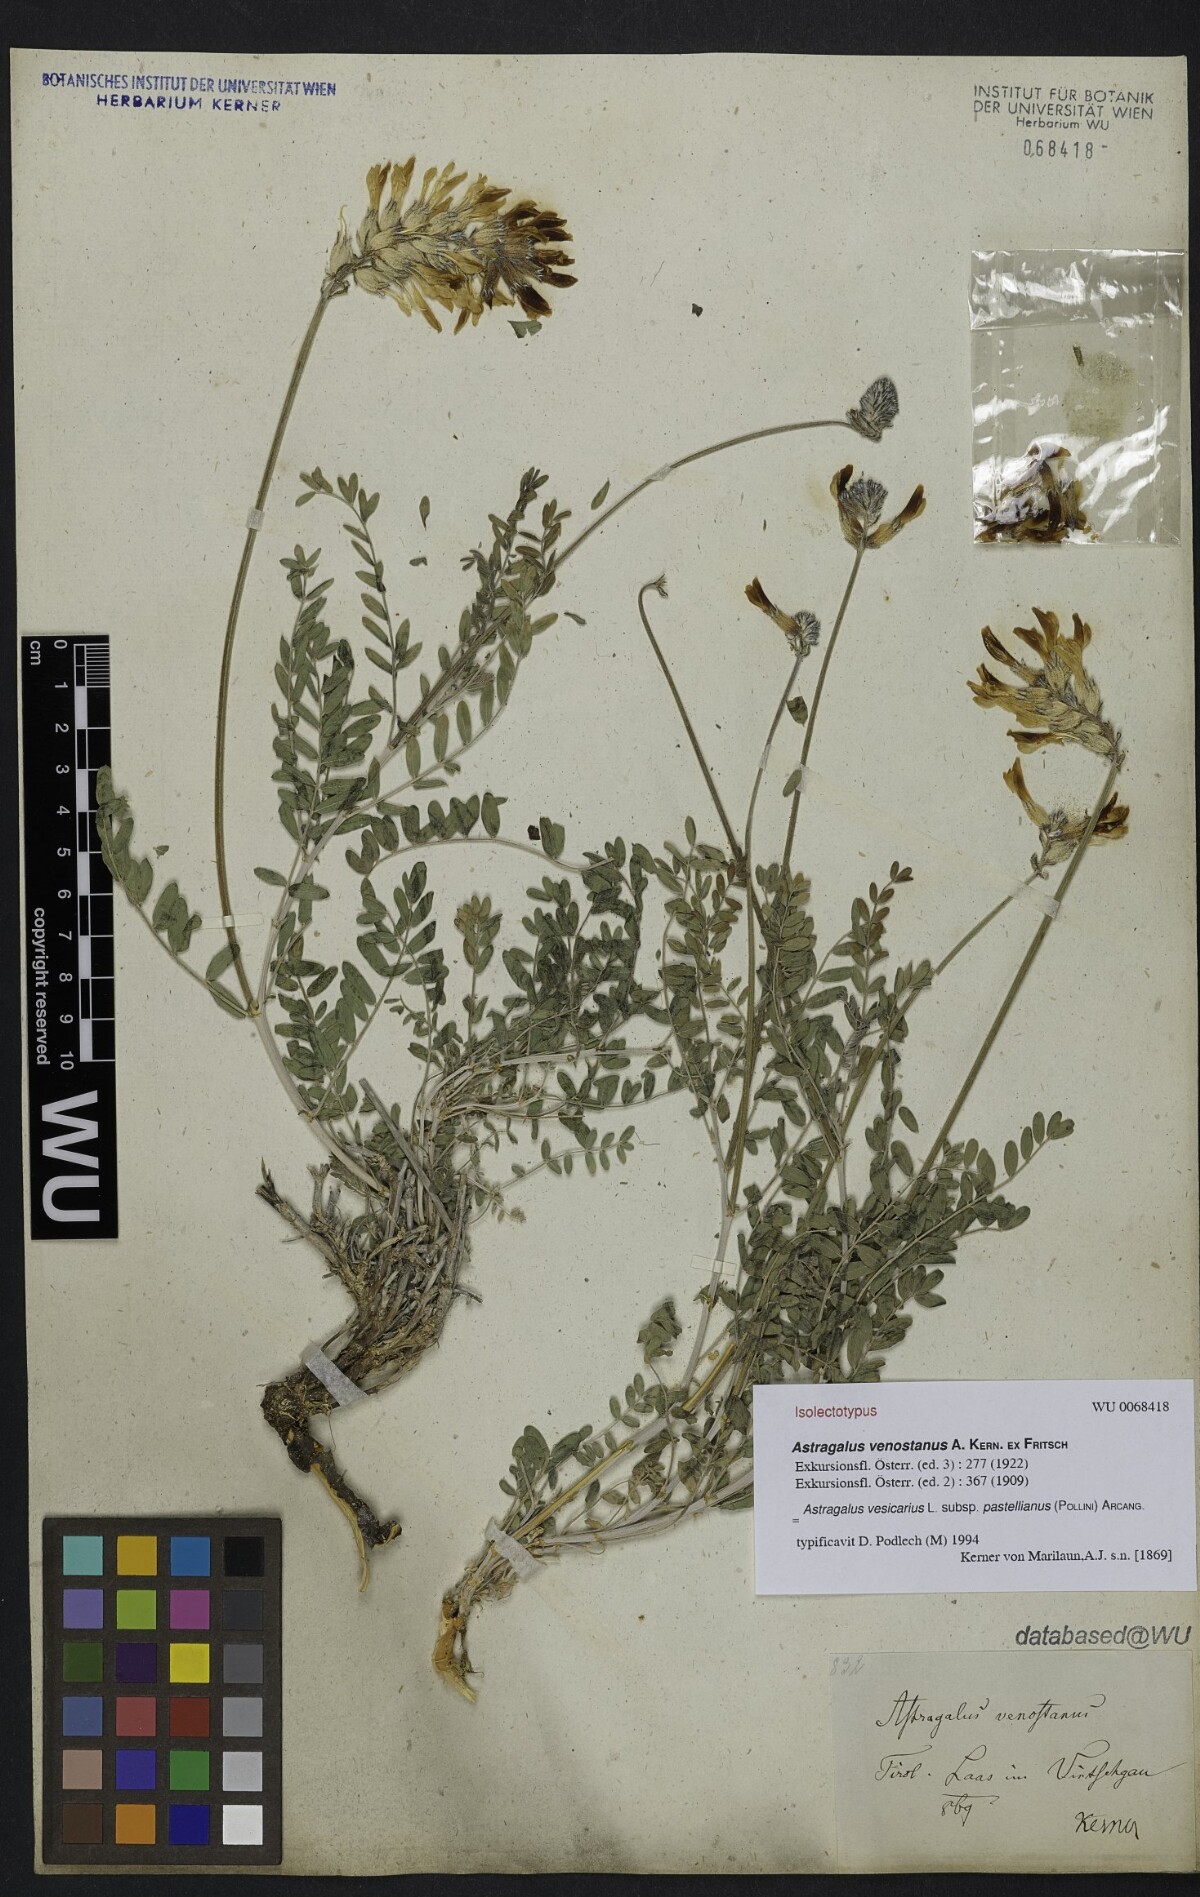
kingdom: Plantae
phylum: Tracheophyta
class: Magnoliopsida
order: Fabales
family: Fabaceae
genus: Astragalus
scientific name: Astragalus vesicarius
